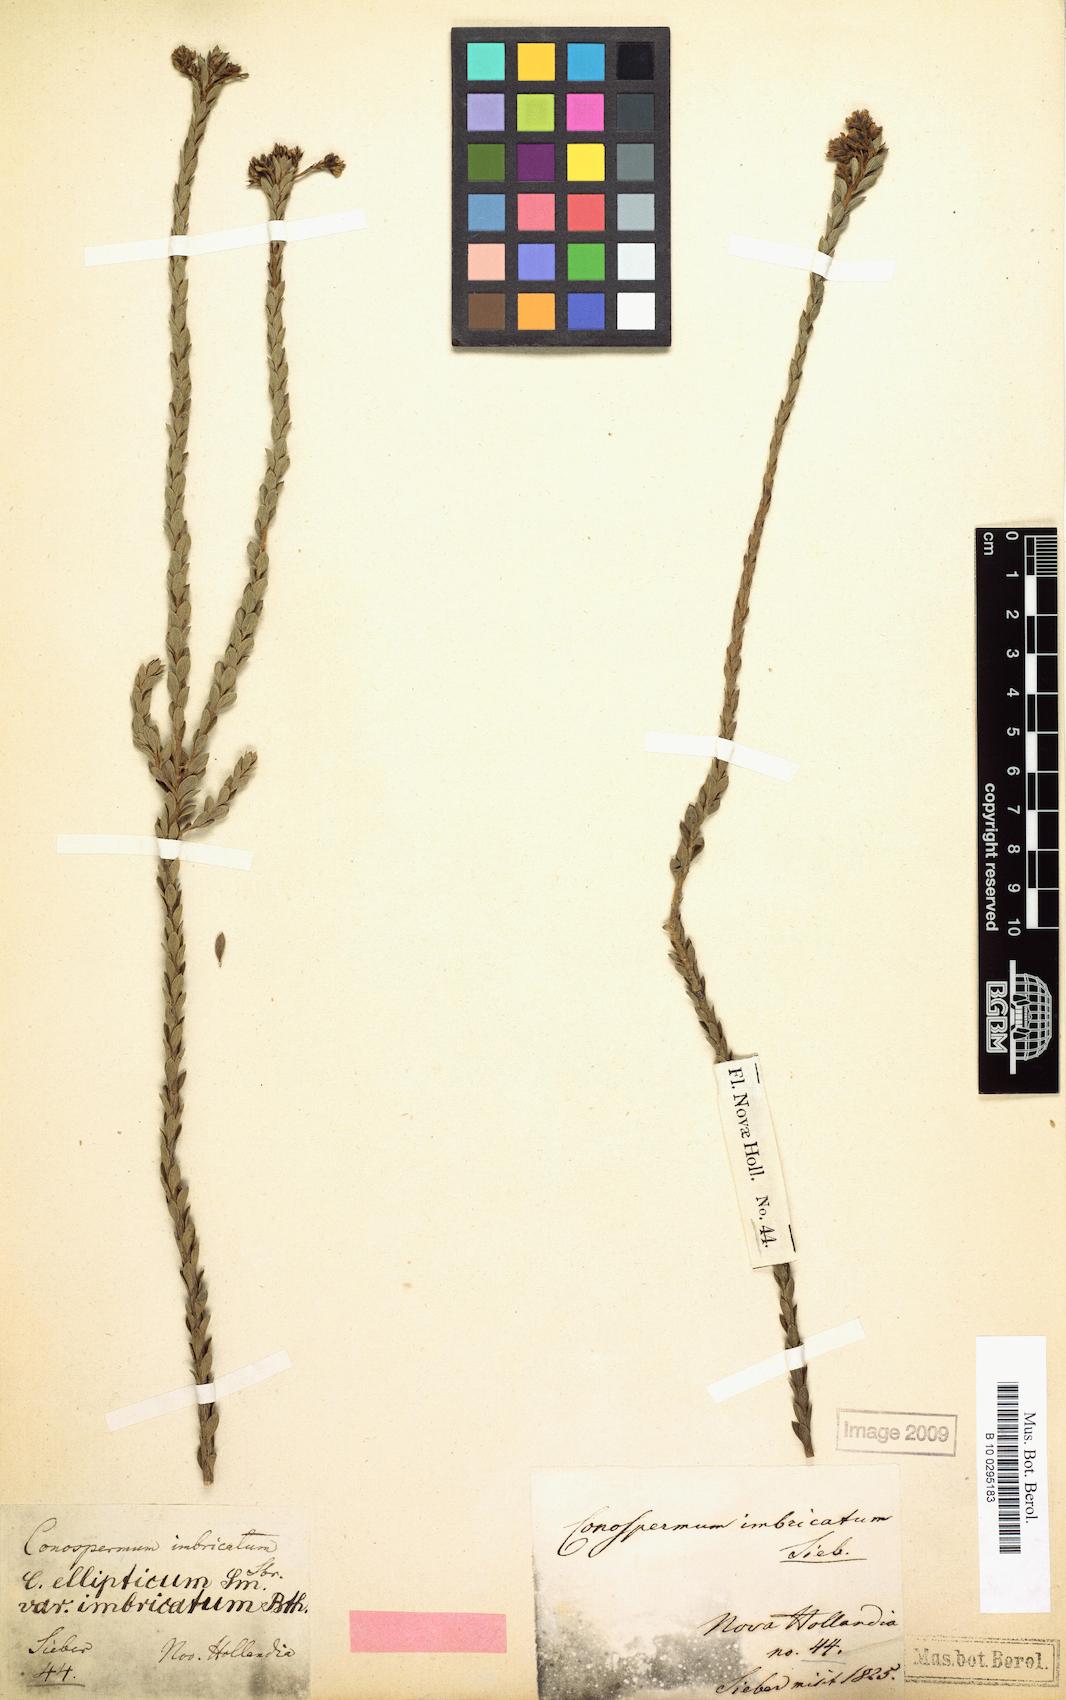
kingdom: Plantae
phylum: Tracheophyta
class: Magnoliopsida
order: Proteales
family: Proteaceae
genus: Conospermum
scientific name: Conospermum ellipticum
